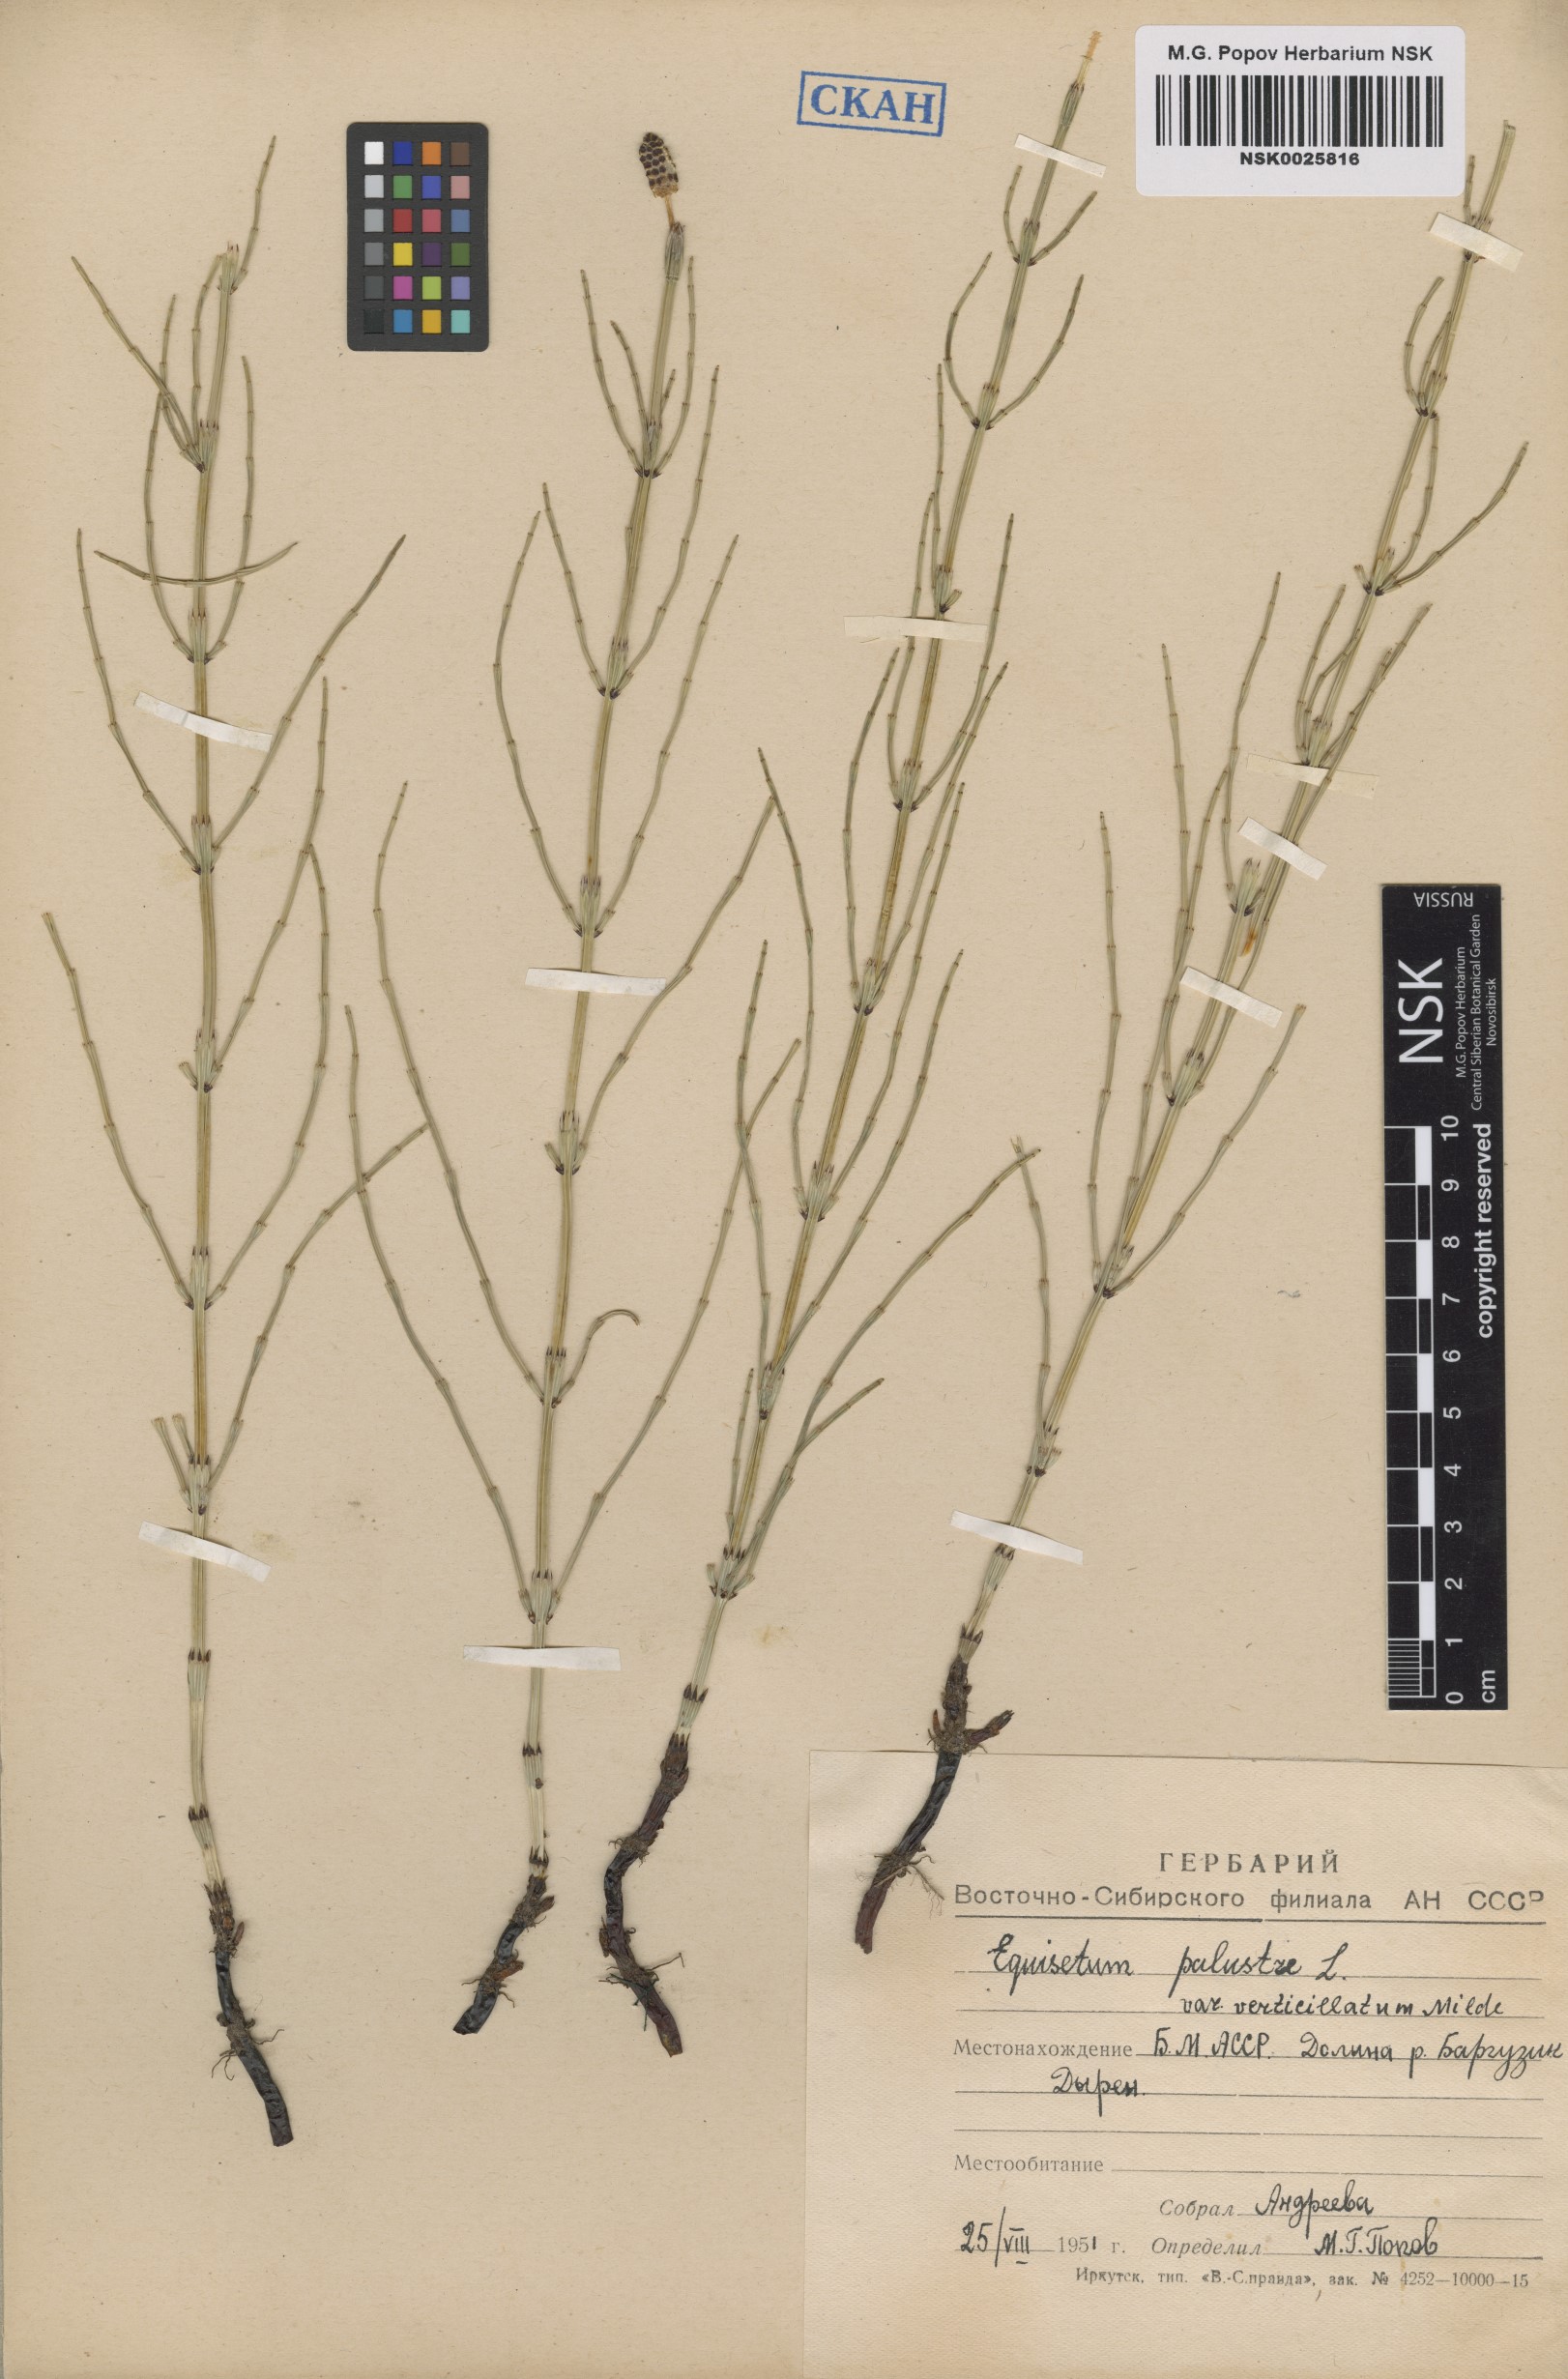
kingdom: Plantae
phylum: Tracheophyta
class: Polypodiopsida
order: Equisetales
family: Equisetaceae
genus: Equisetum
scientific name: Equisetum palustre
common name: Marsh horsetail
